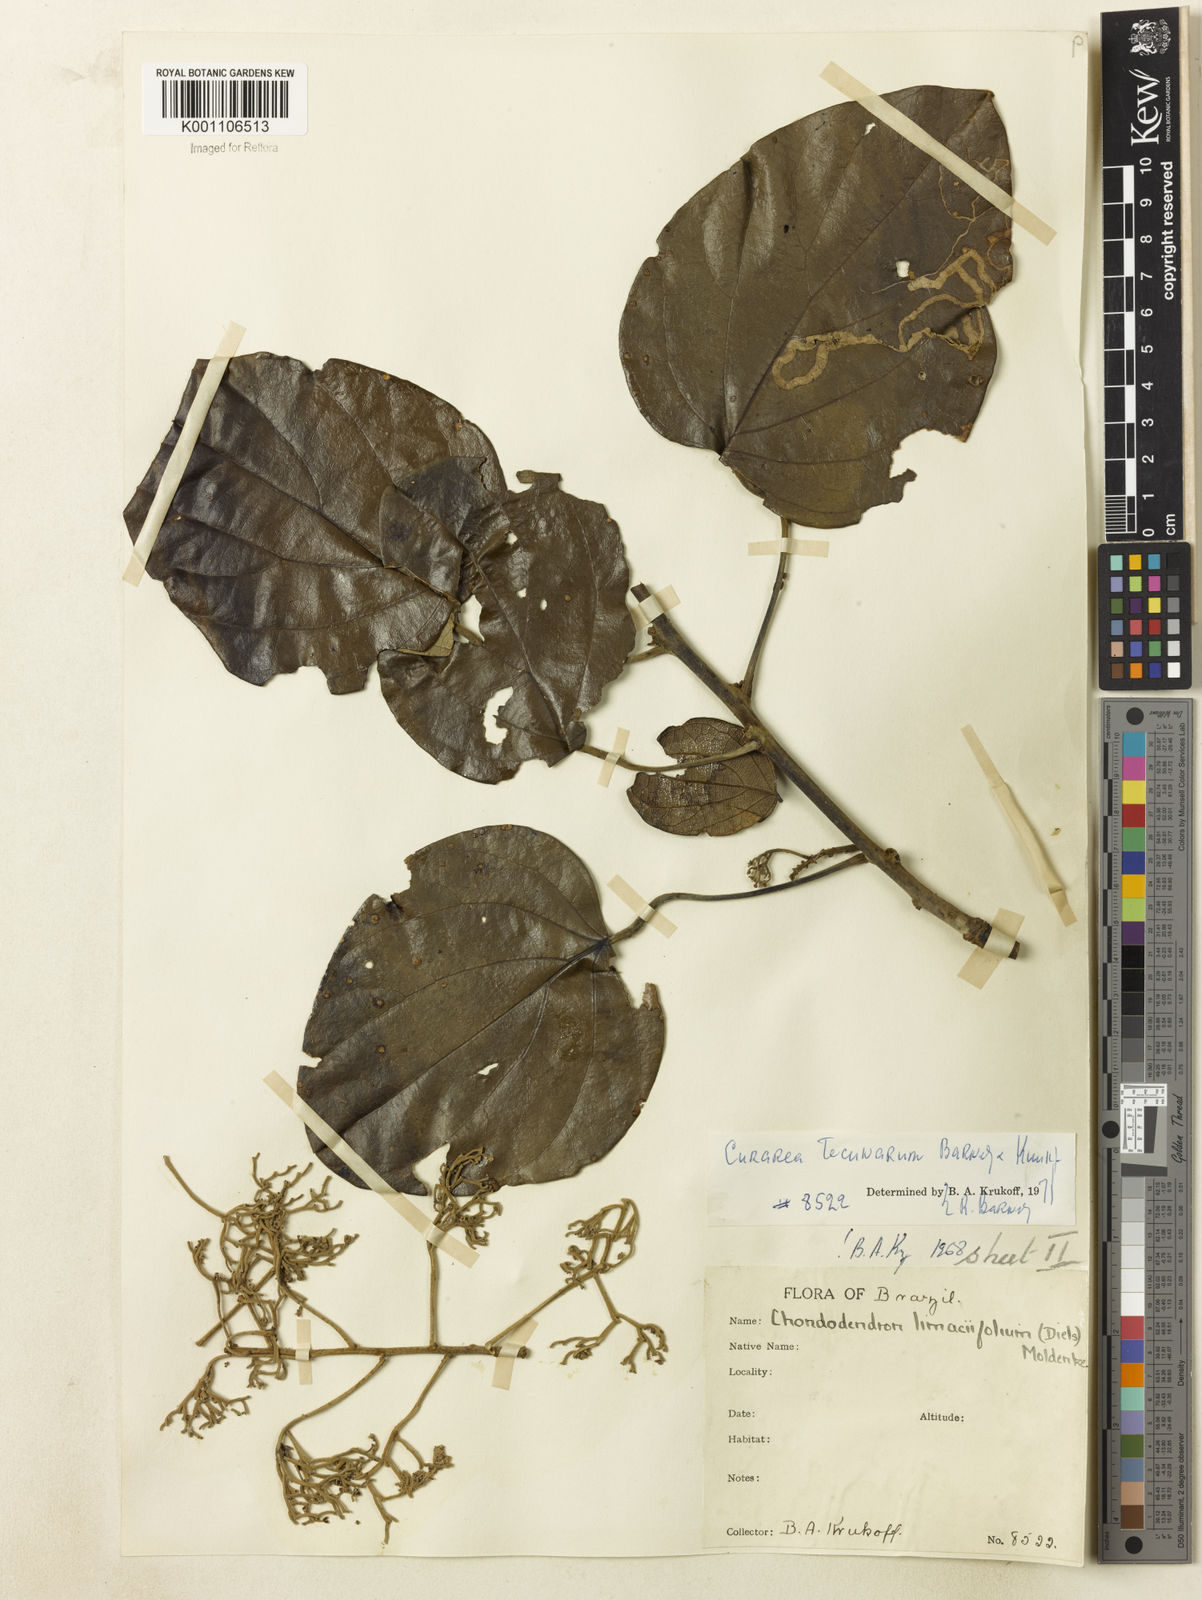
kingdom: Plantae
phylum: Tracheophyta
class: Magnoliopsida
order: Ranunculales
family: Menispermaceae
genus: Curarea
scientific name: Curarea tecunarum
